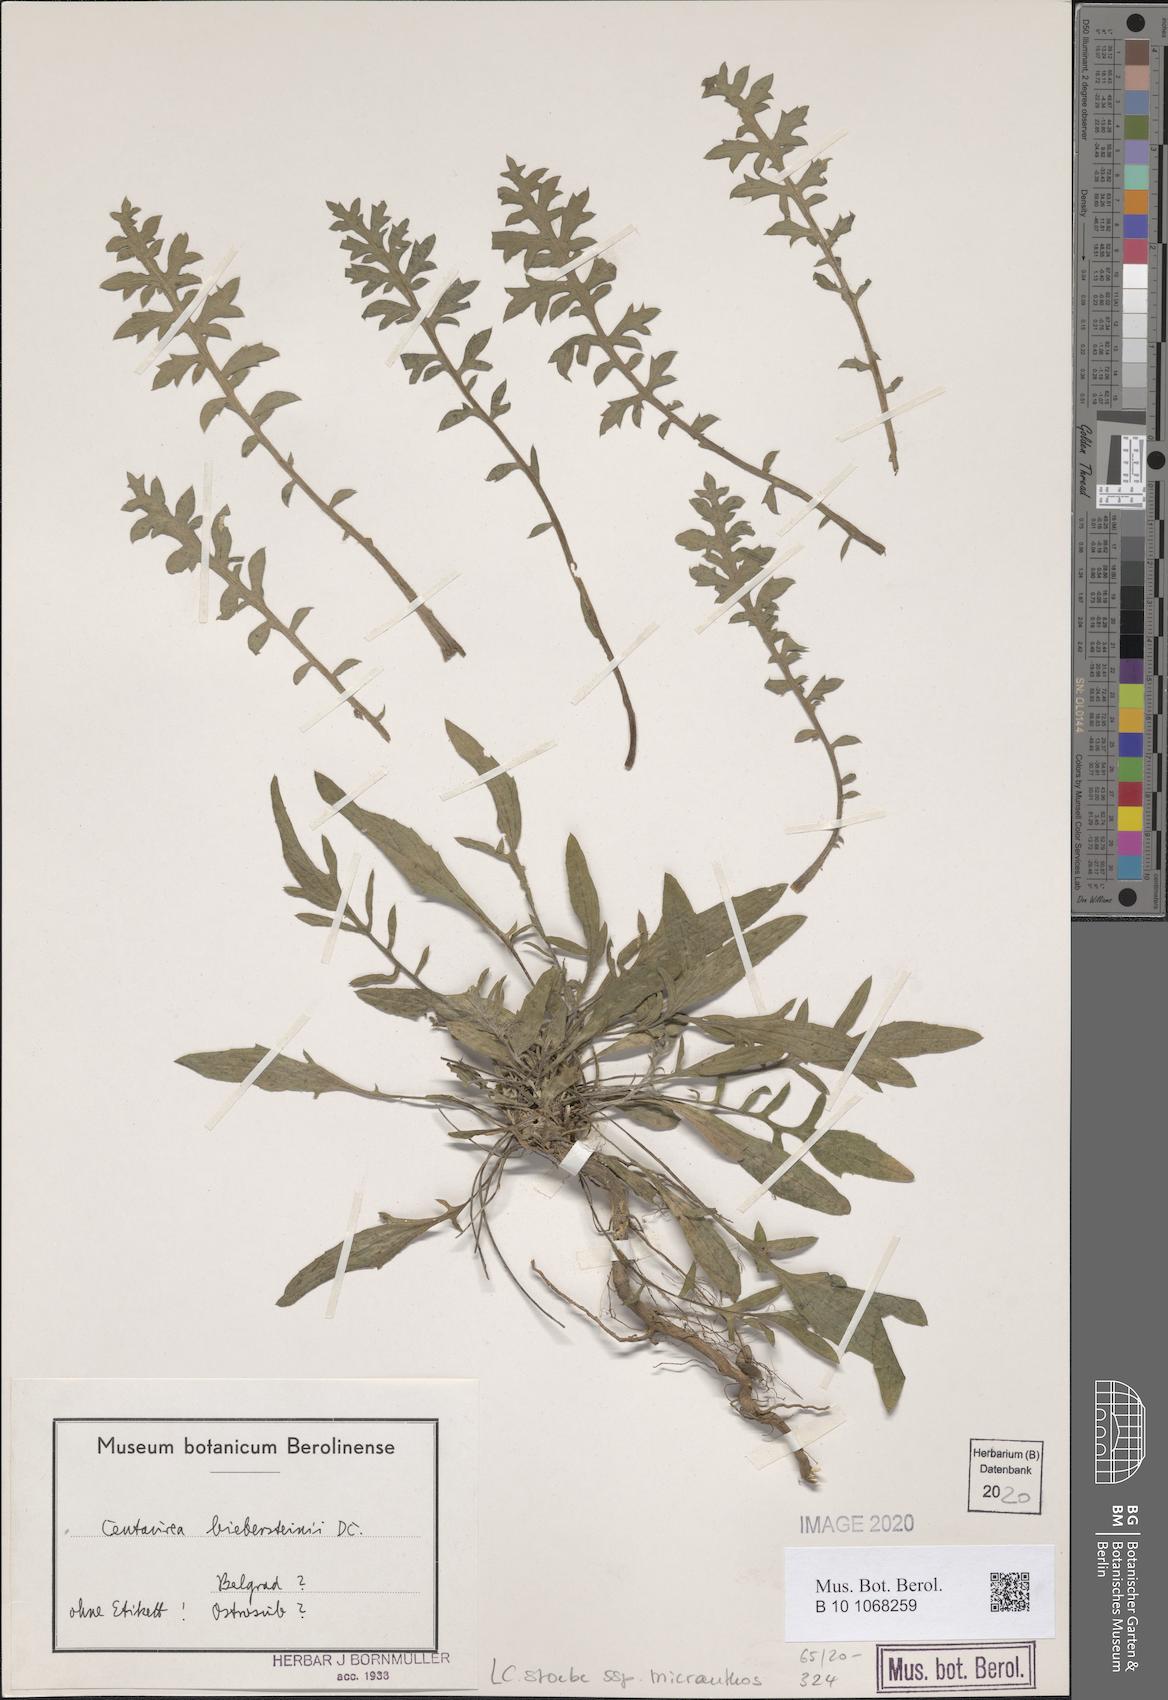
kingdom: Plantae
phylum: Tracheophyta
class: Magnoliopsida
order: Asterales
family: Asteraceae
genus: Centaurea
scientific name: Centaurea australis
